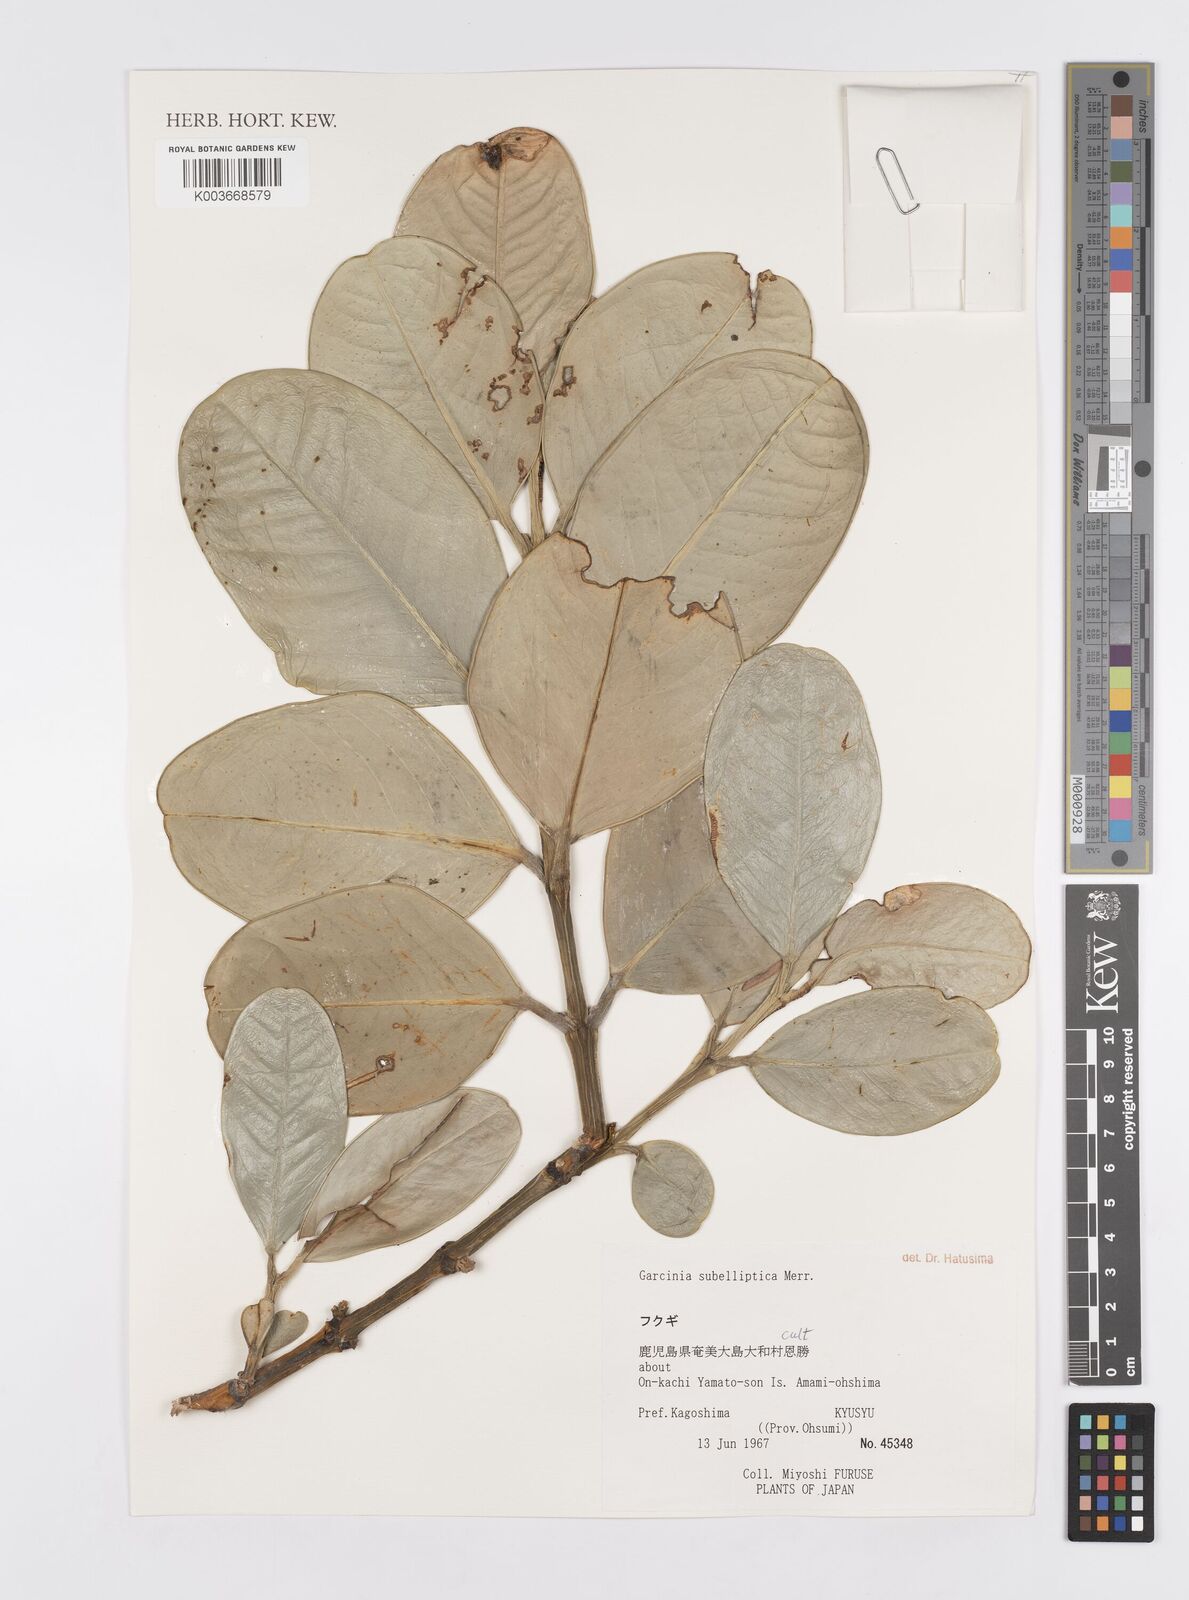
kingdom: Plantae
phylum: Tracheophyta
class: Magnoliopsida
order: Malpighiales
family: Clusiaceae
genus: Garcinia
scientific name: Garcinia subelliptica
